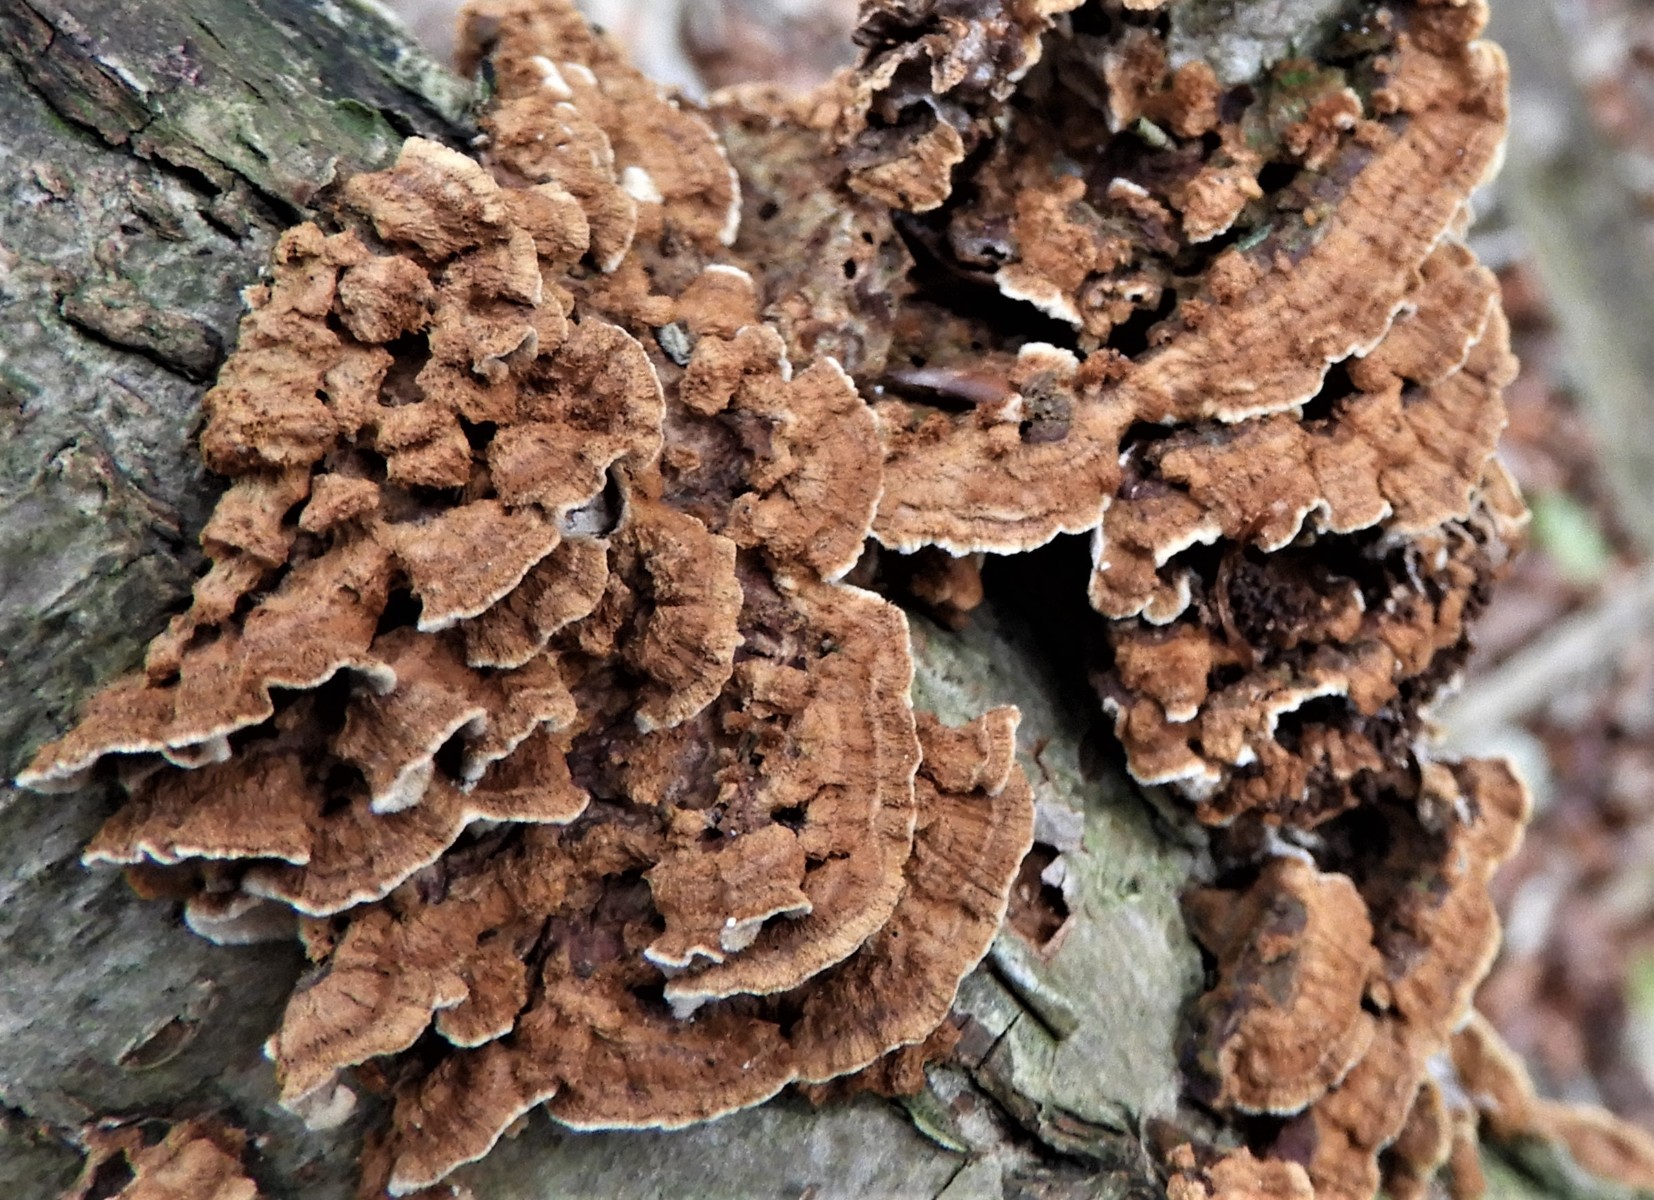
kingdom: Fungi
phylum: Basidiomycota
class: Agaricomycetes
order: Hymenochaetales
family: Hymenochaetaceae
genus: Hydnoporia
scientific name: Hydnoporia tabacina
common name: tobaksbrun ruslædersvamp
